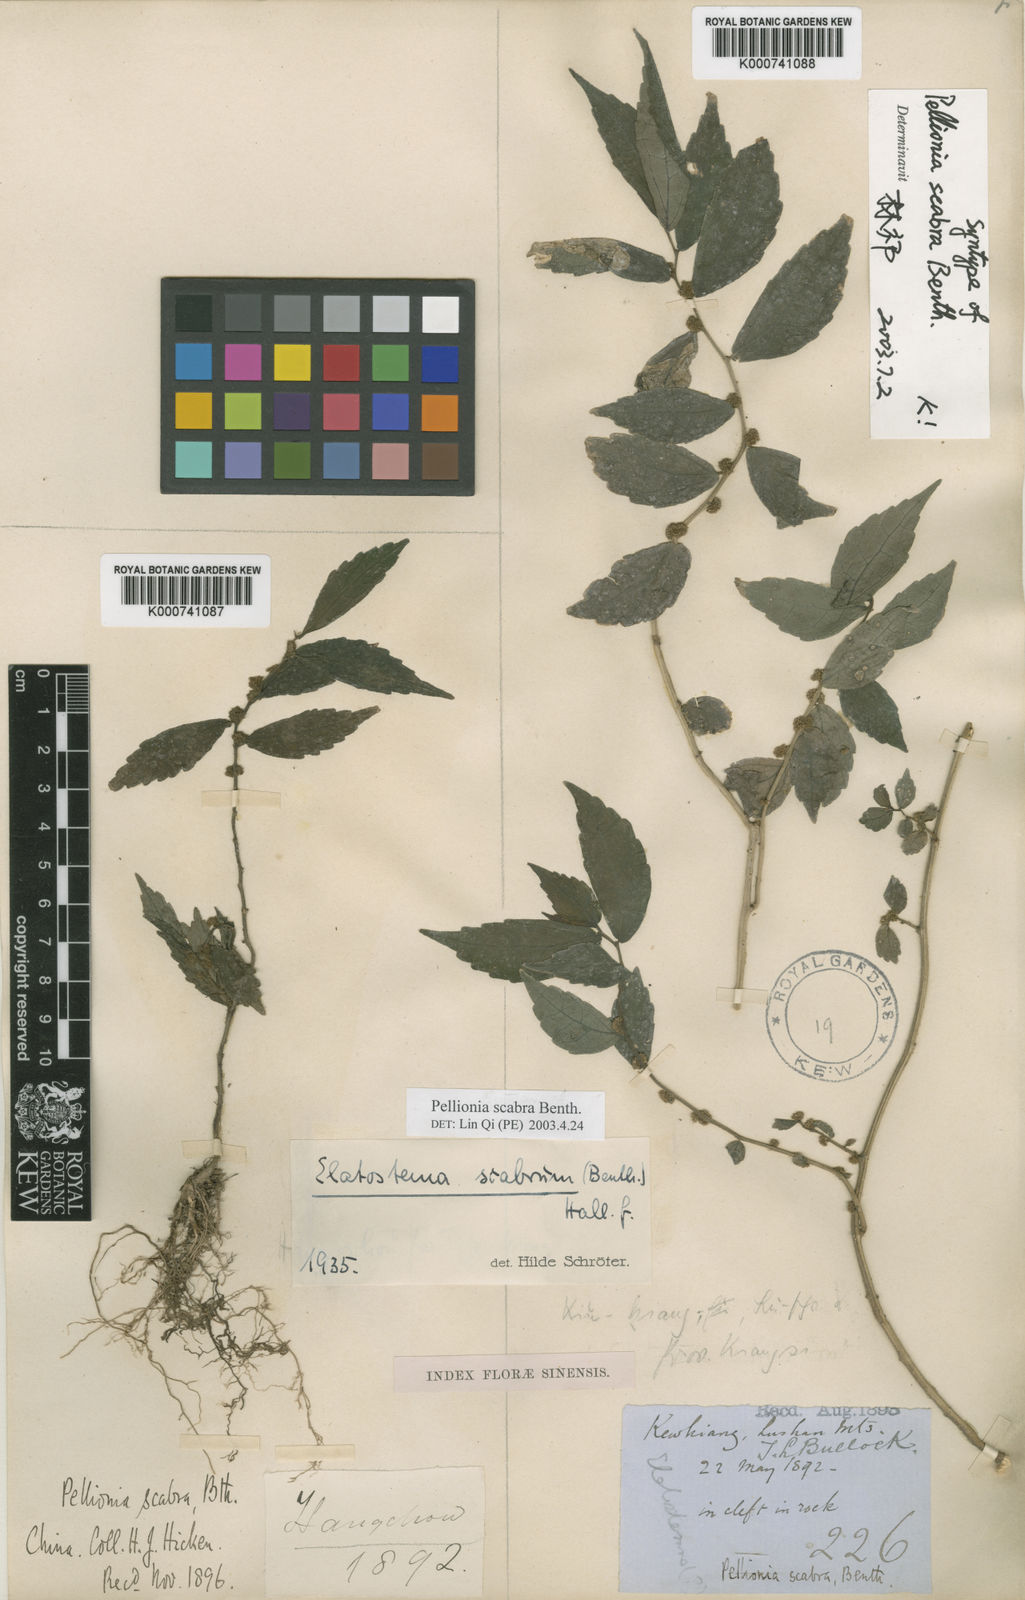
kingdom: Plantae
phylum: Tracheophyta
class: Magnoliopsida
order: Rosales
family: Urticaceae
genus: Elatostema
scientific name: Elatostema scabrum
